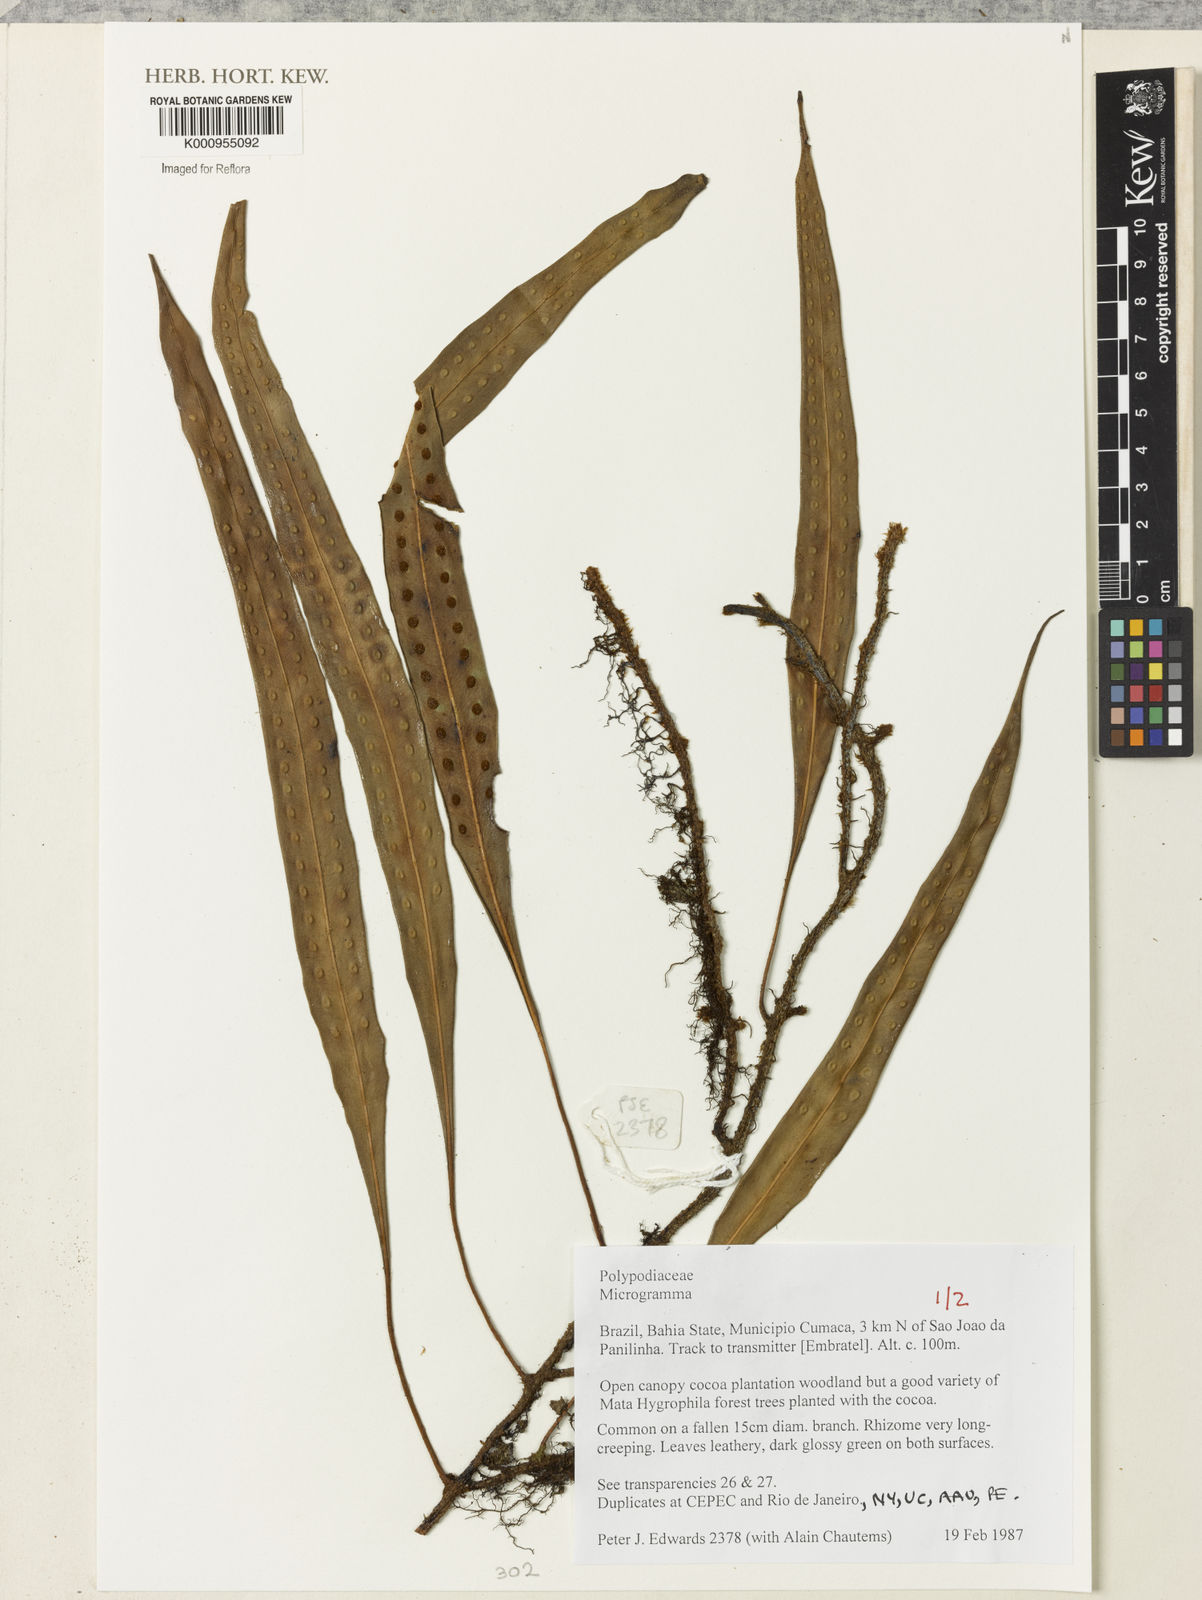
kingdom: Plantae
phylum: Tracheophyta
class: Polypodiopsida
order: Polypodiales
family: Polypodiaceae
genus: Microgramma
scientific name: Microgramma
